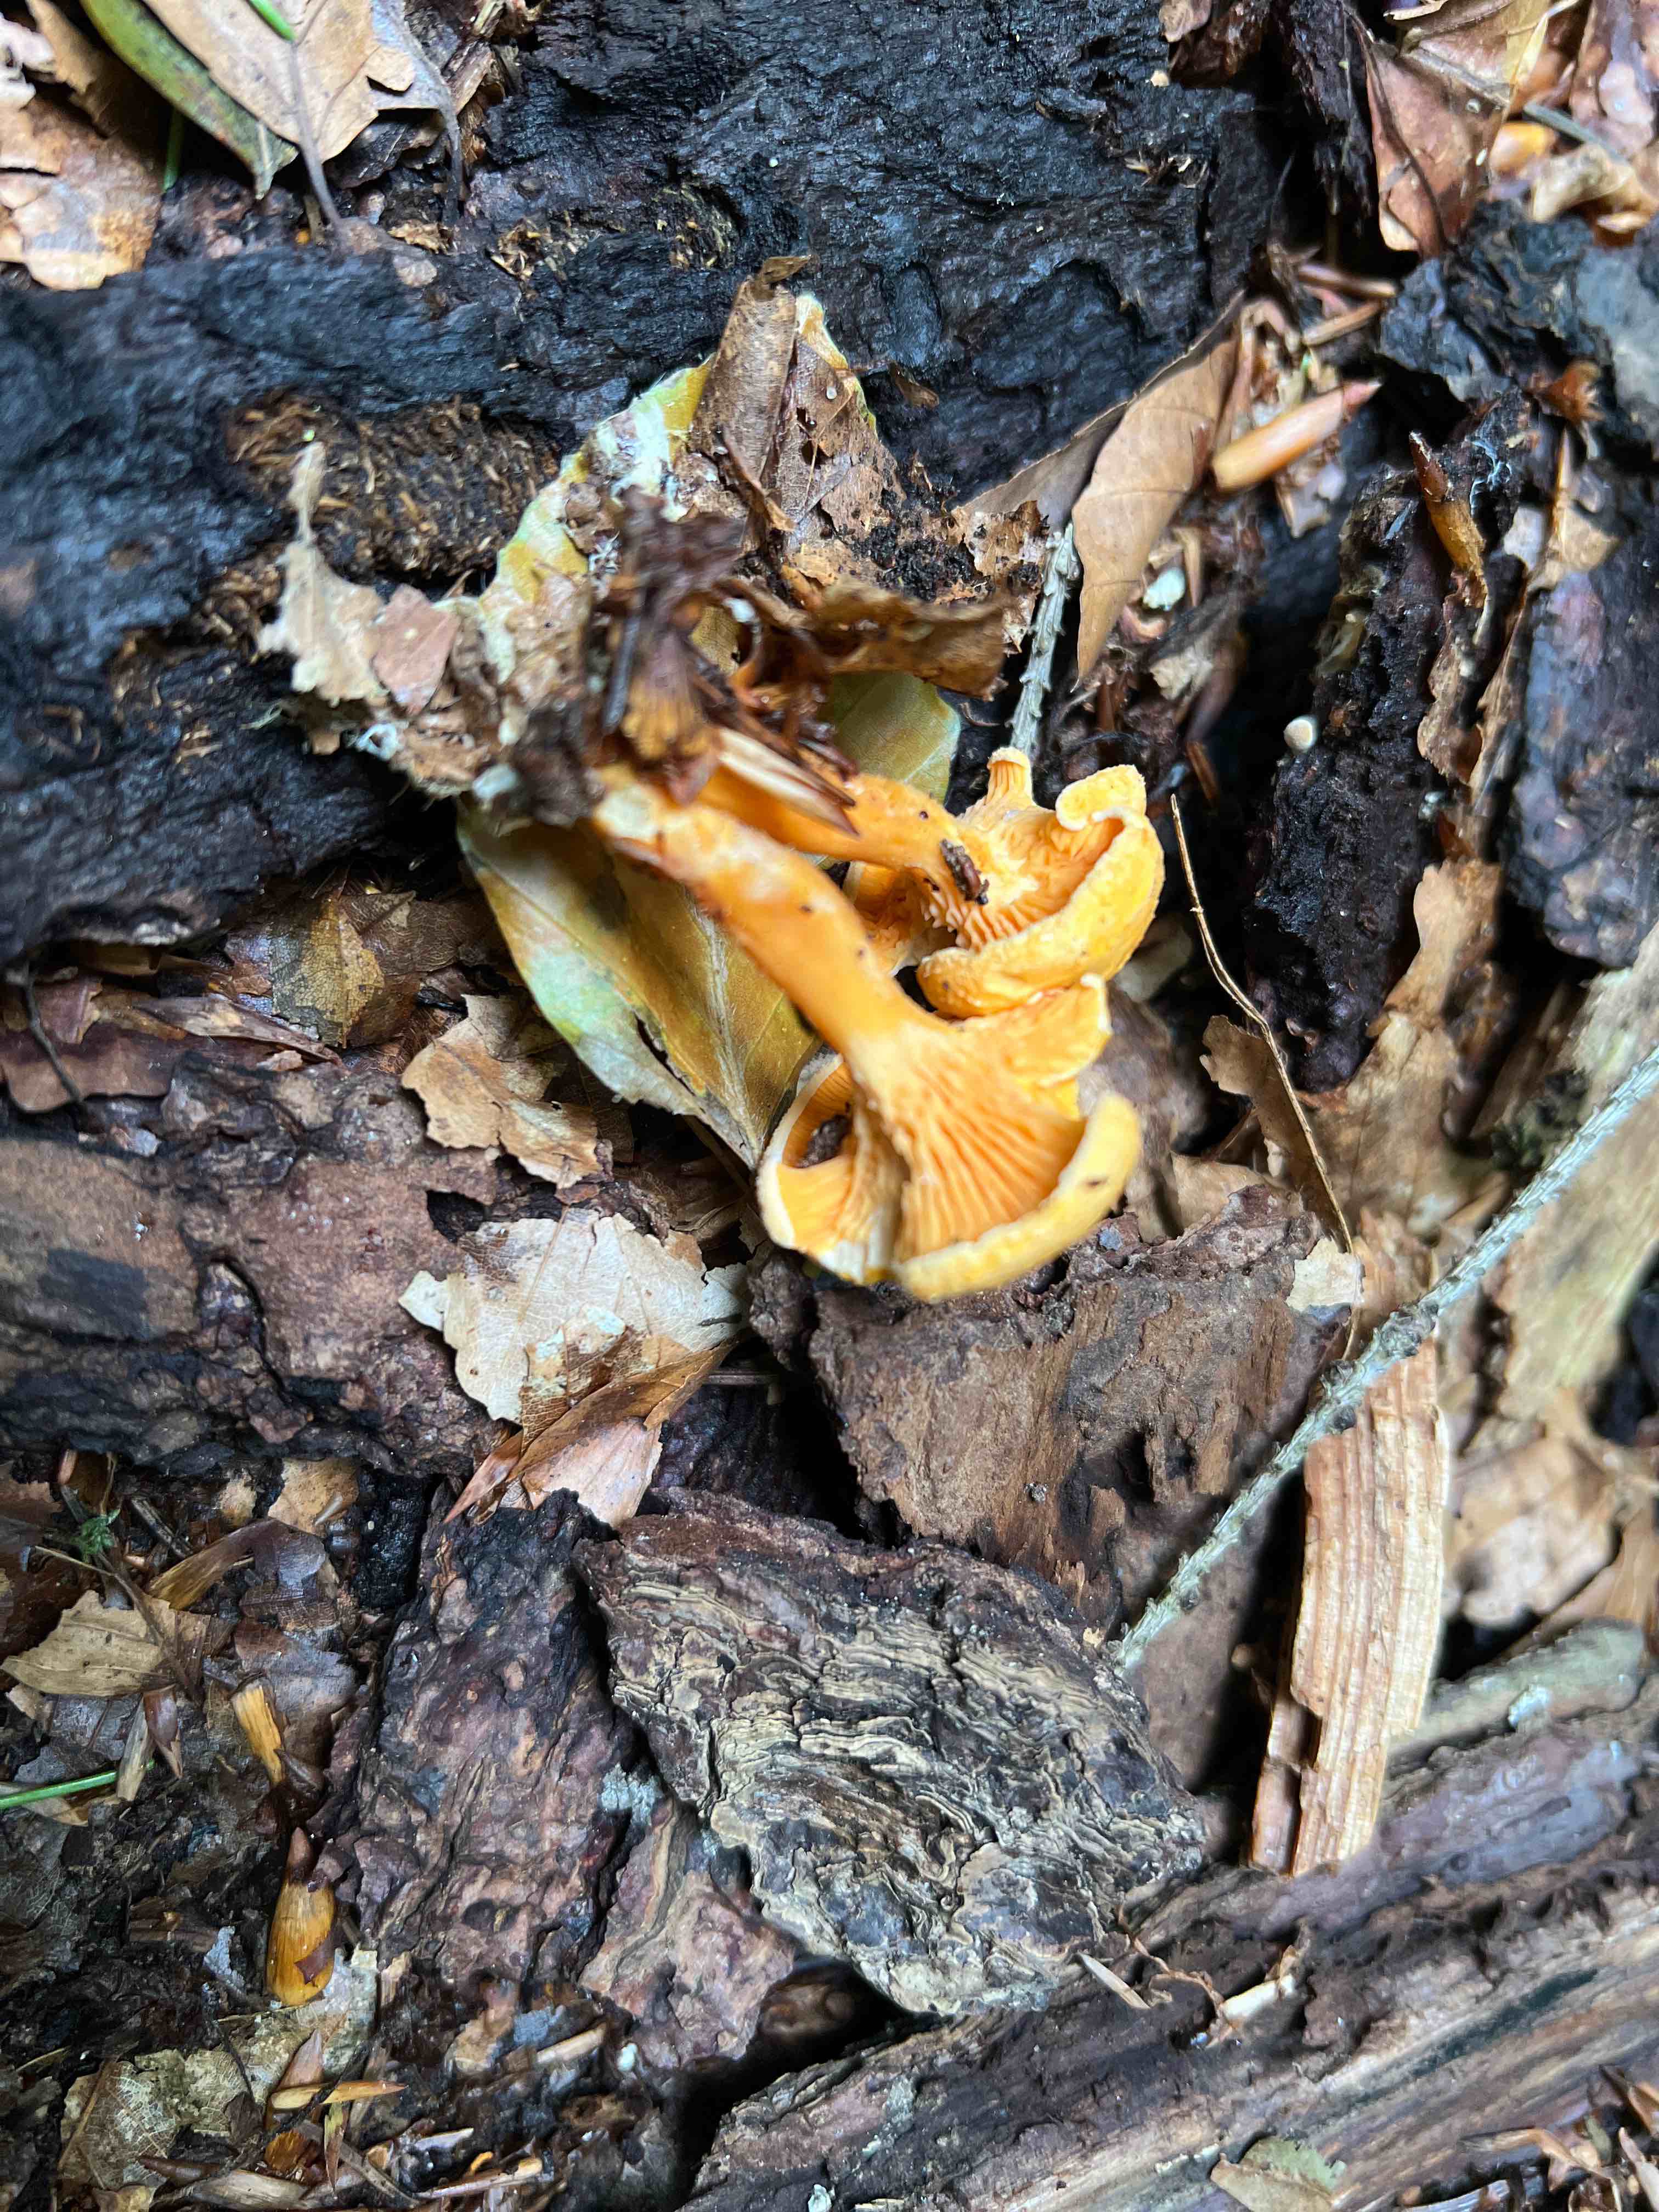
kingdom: Fungi
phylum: Basidiomycota
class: Agaricomycetes
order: Boletales
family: Hygrophoropsidaceae
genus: Hygrophoropsis
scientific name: Hygrophoropsis aurantiaca
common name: almindelig orangekantarel
